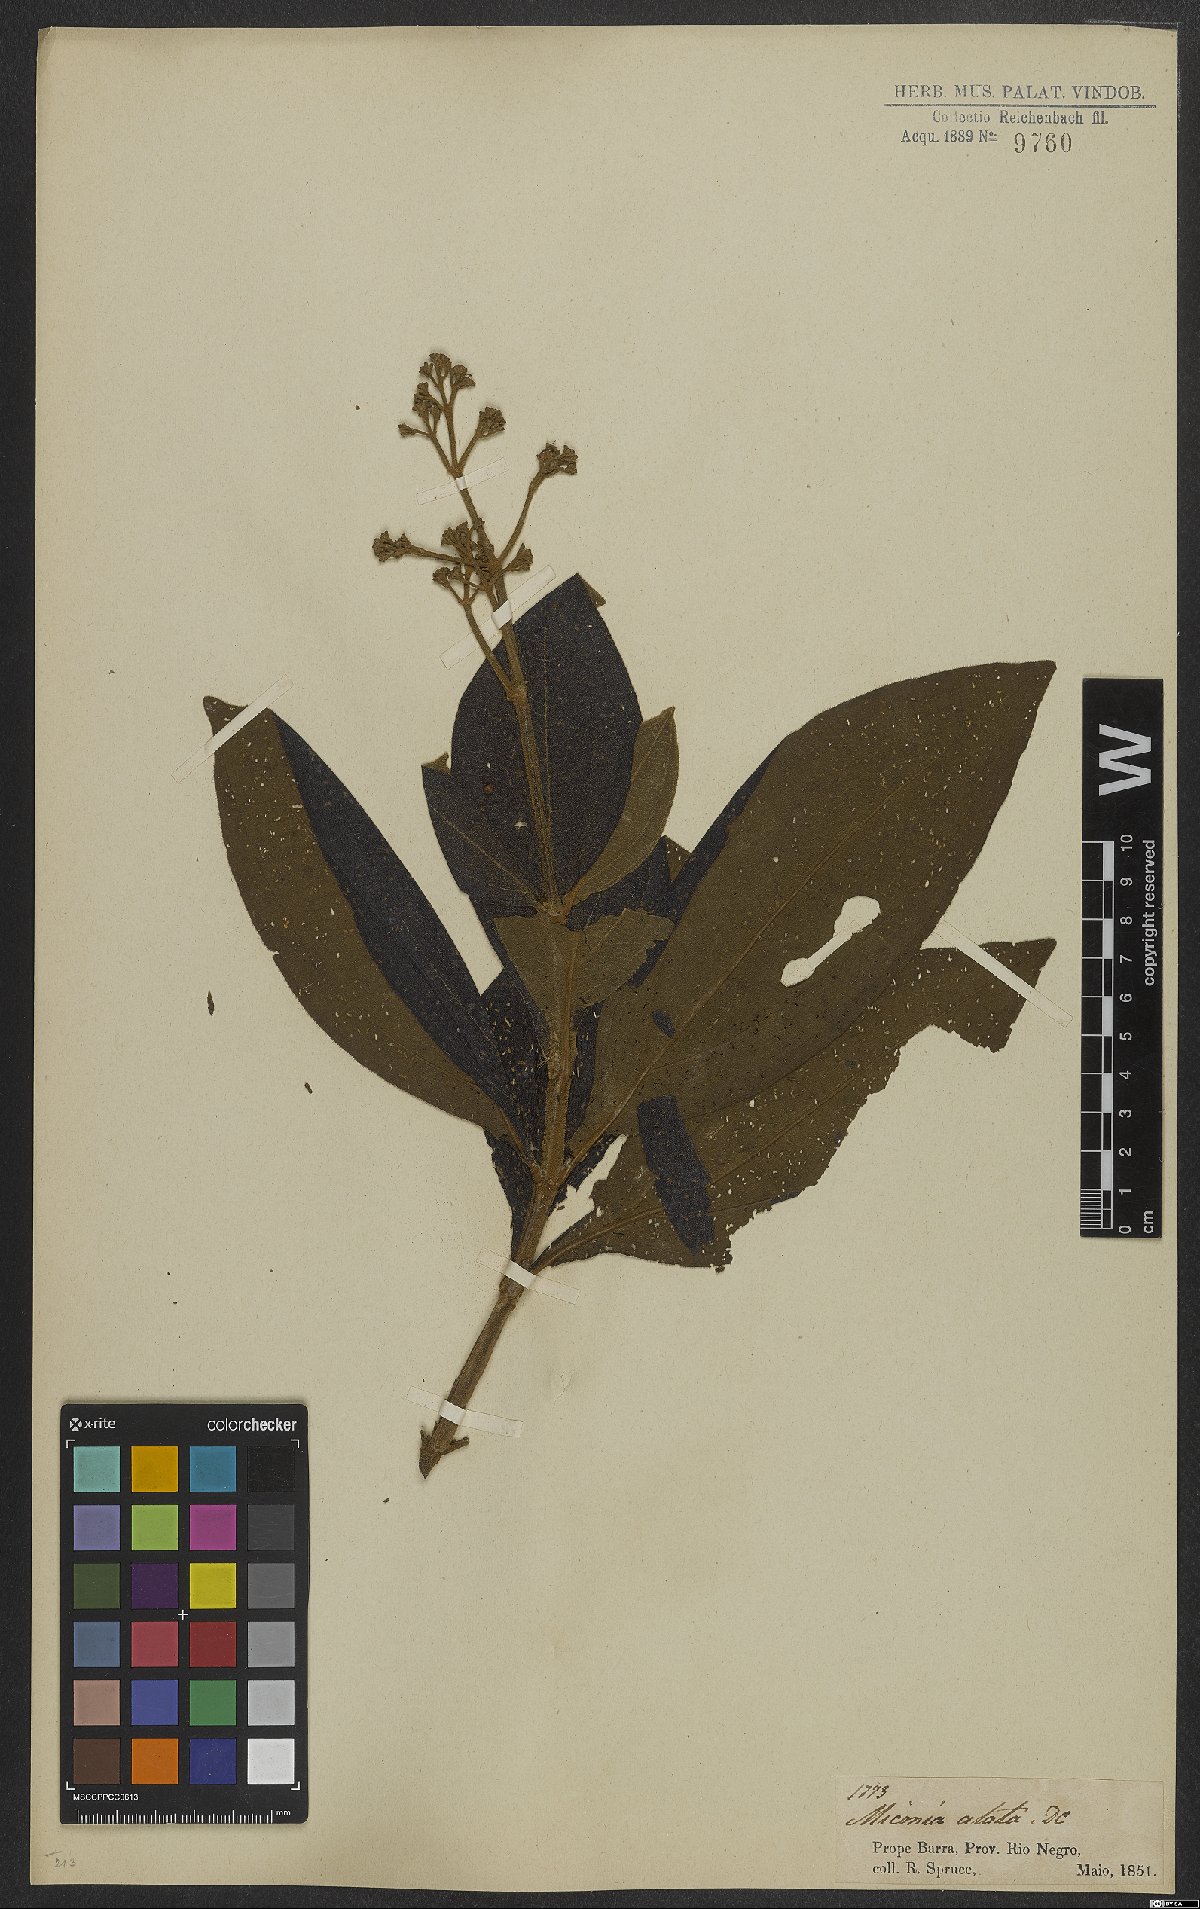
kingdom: Plantae
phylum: Tracheophyta
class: Magnoliopsida
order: Myrtales
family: Melastomataceae
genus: Miconia
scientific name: Miconia alata
